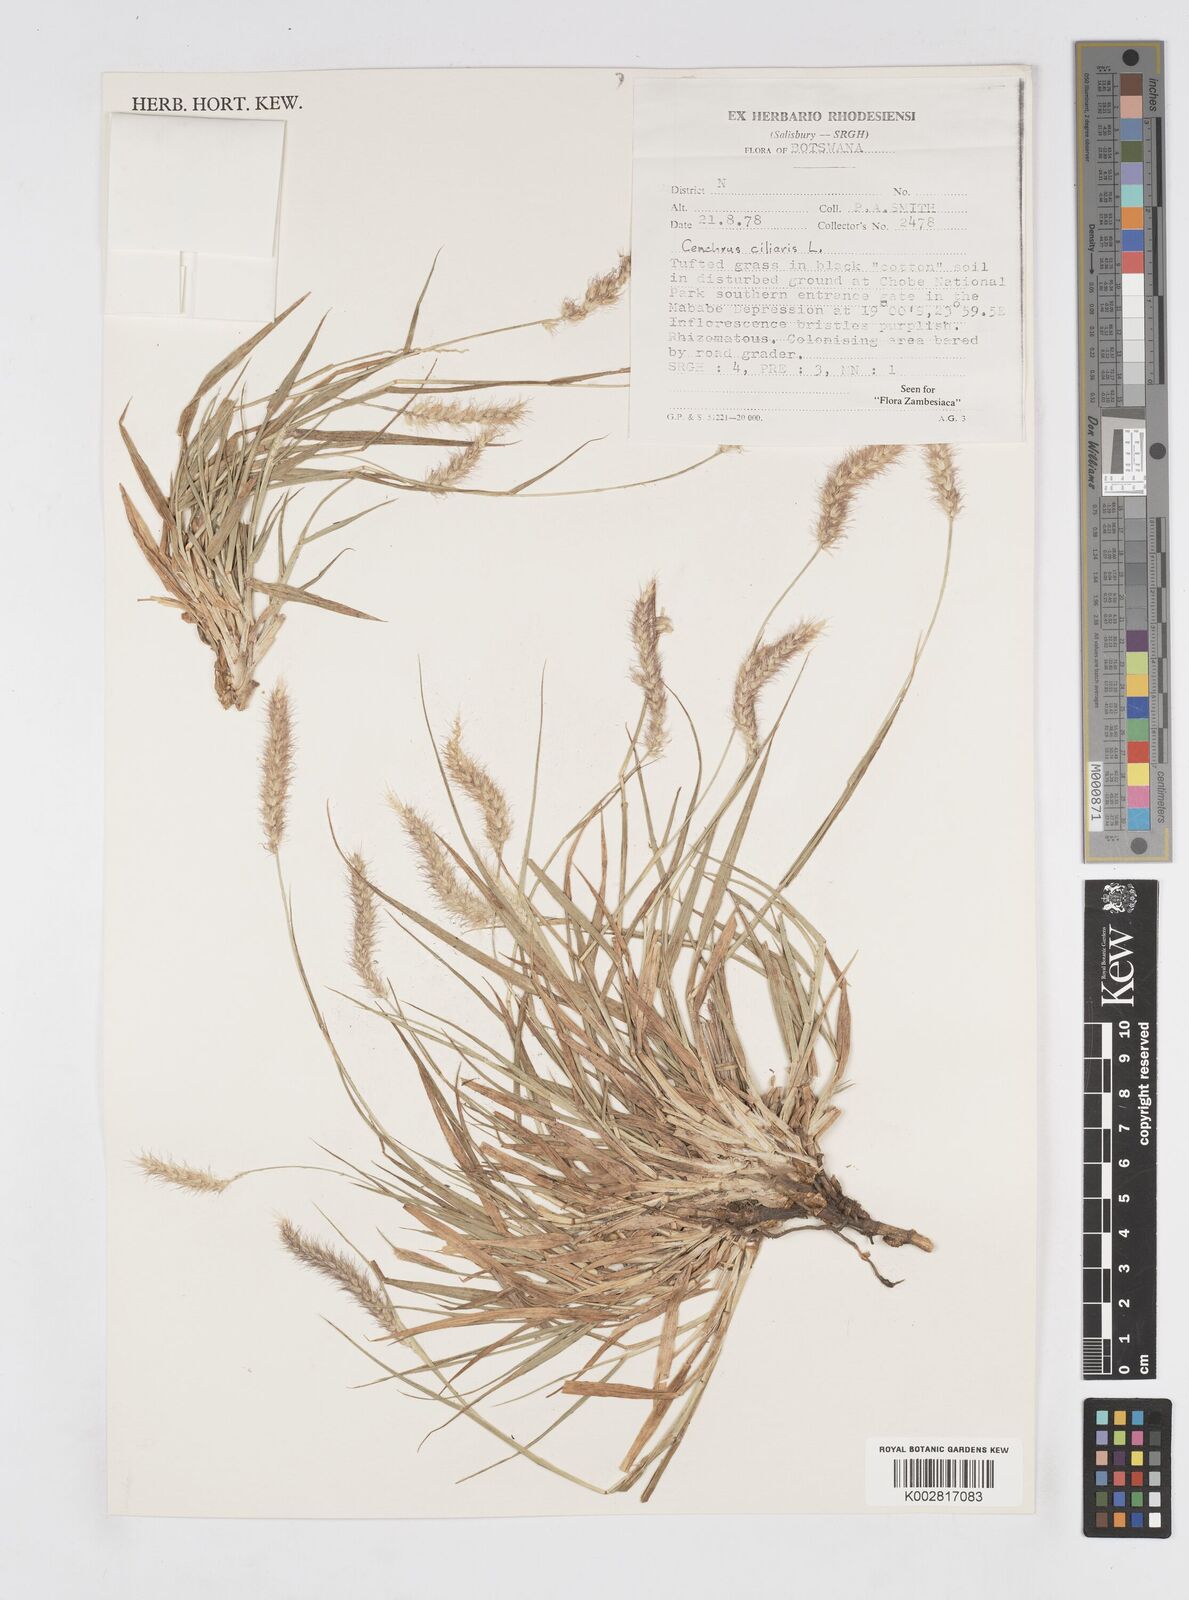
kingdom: Plantae
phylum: Tracheophyta
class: Liliopsida
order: Poales
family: Poaceae
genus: Cenchrus
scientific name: Cenchrus ciliaris
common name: Buffelgrass
